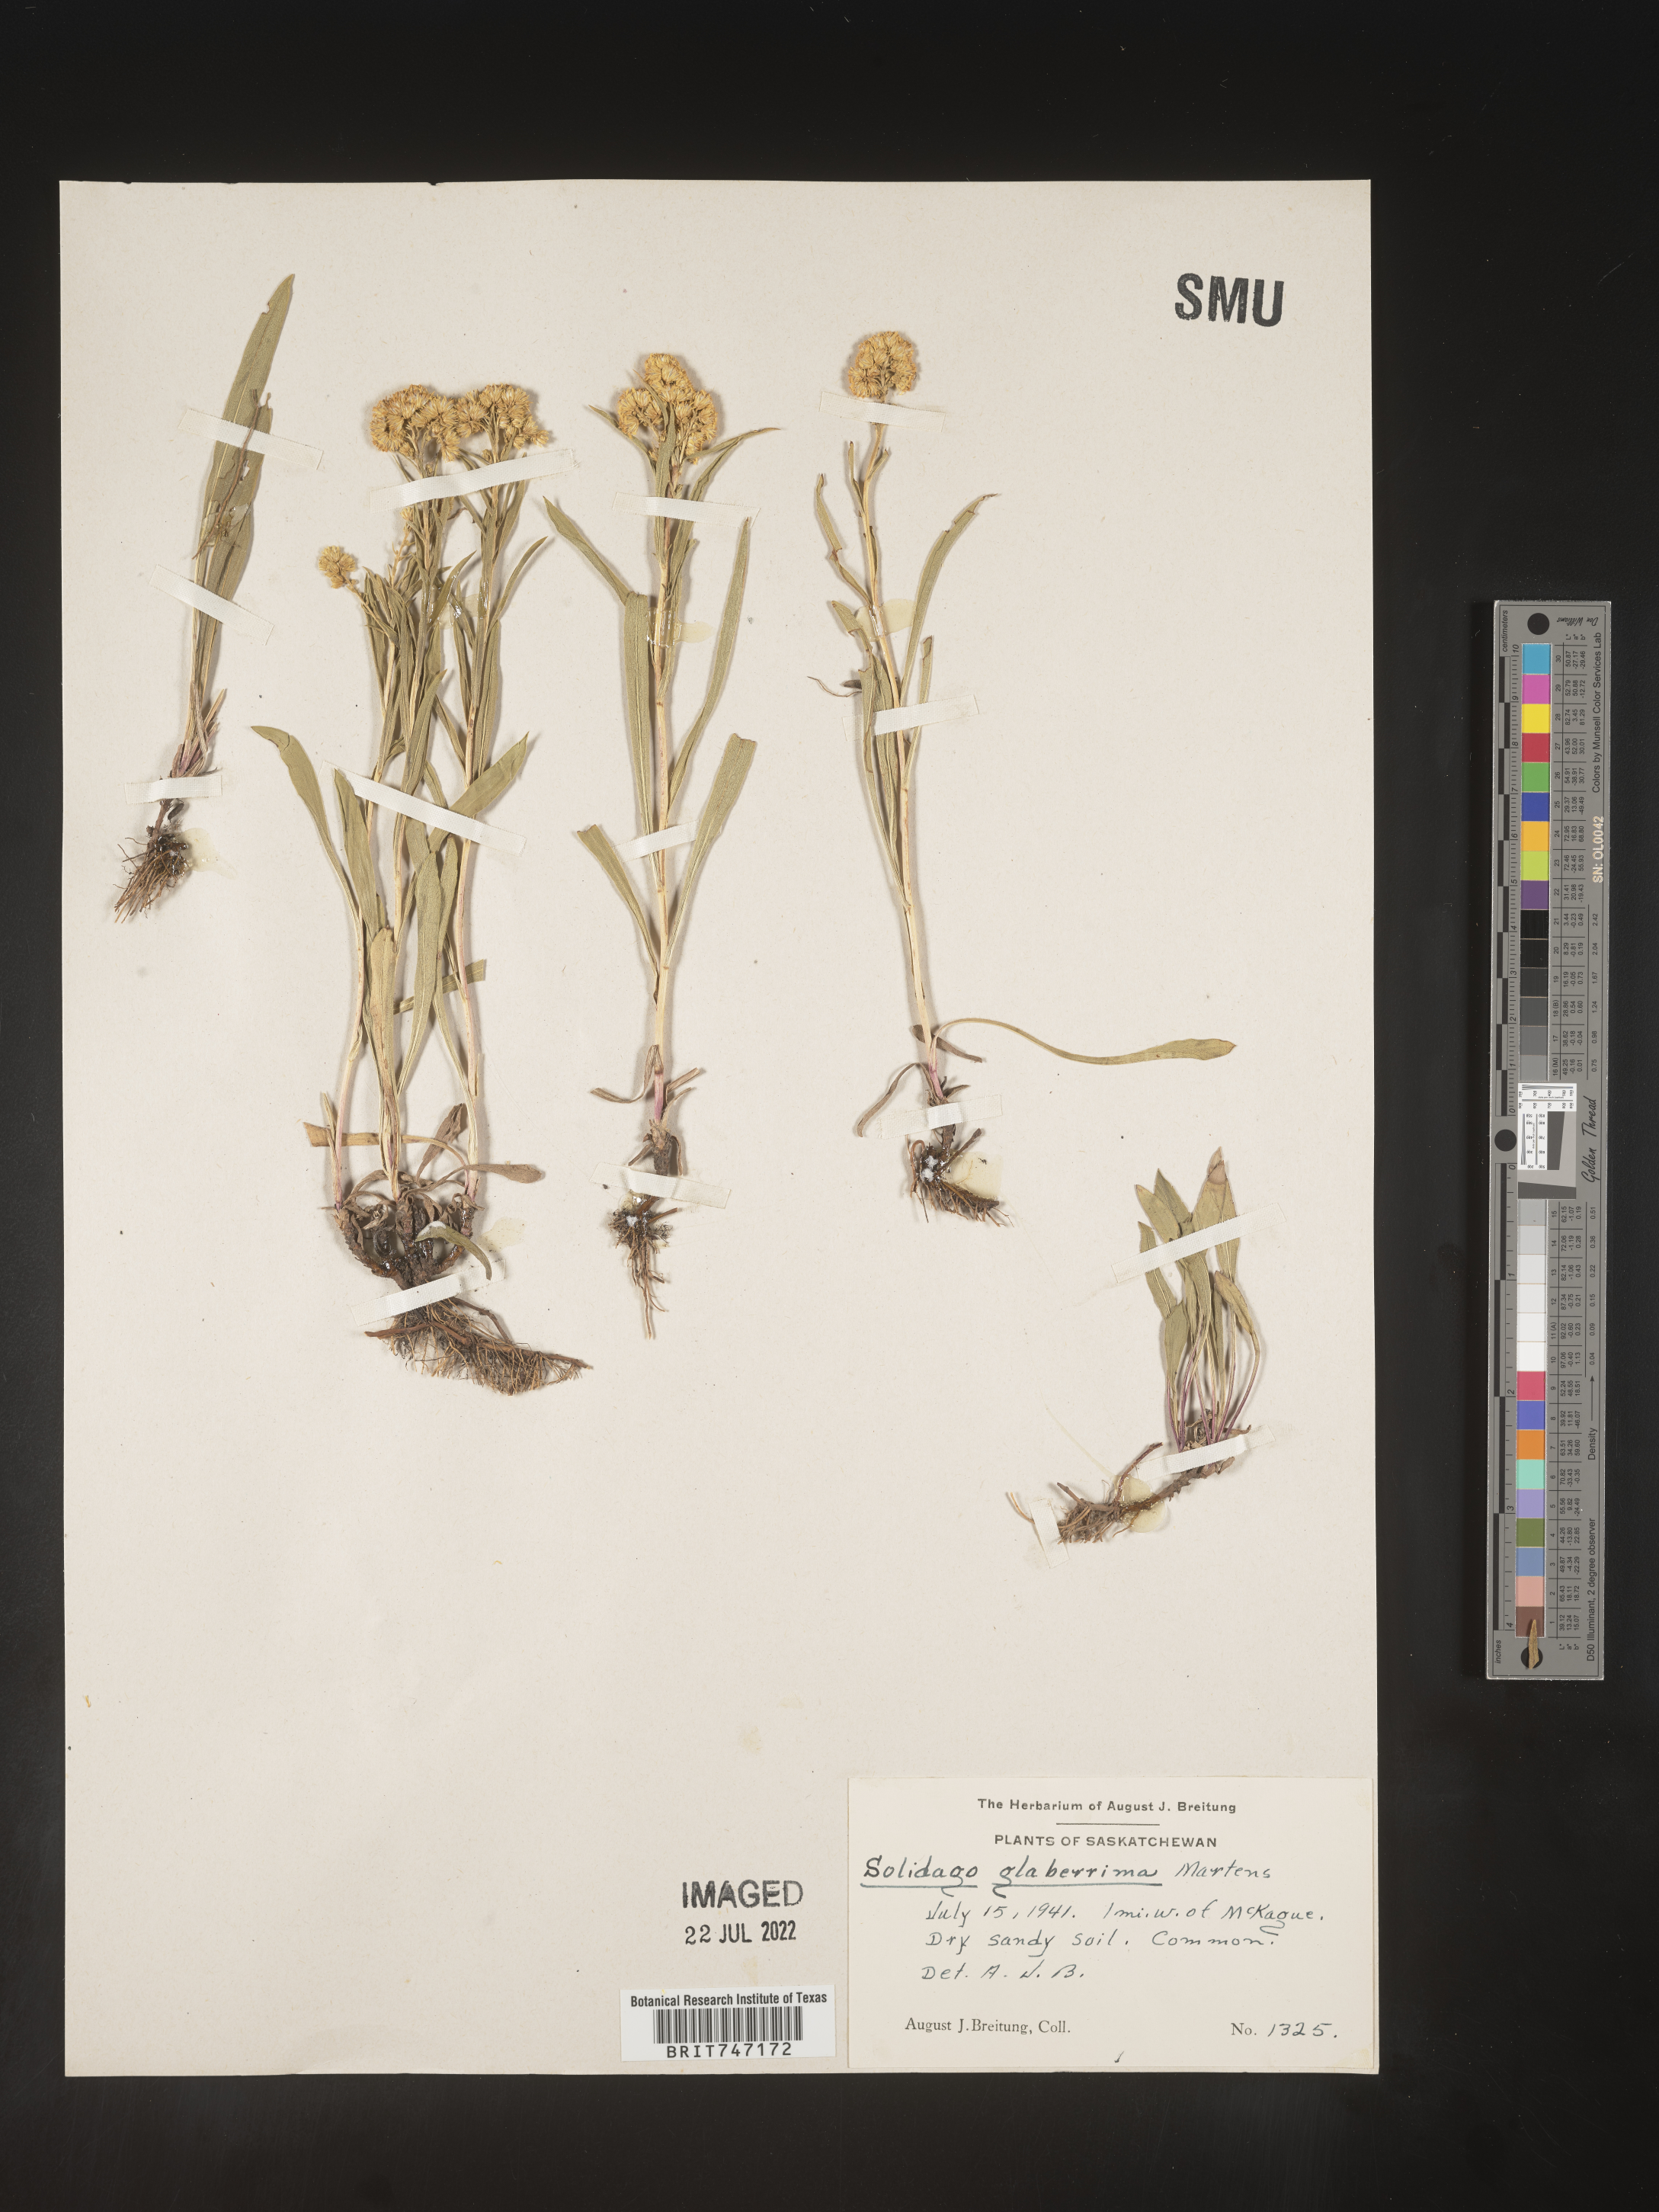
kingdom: Plantae
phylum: Tracheophyta
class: Magnoliopsida
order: Asterales
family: Asteraceae
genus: Solidago
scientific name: Solidago missouriensis
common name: Prairie goldenrod
